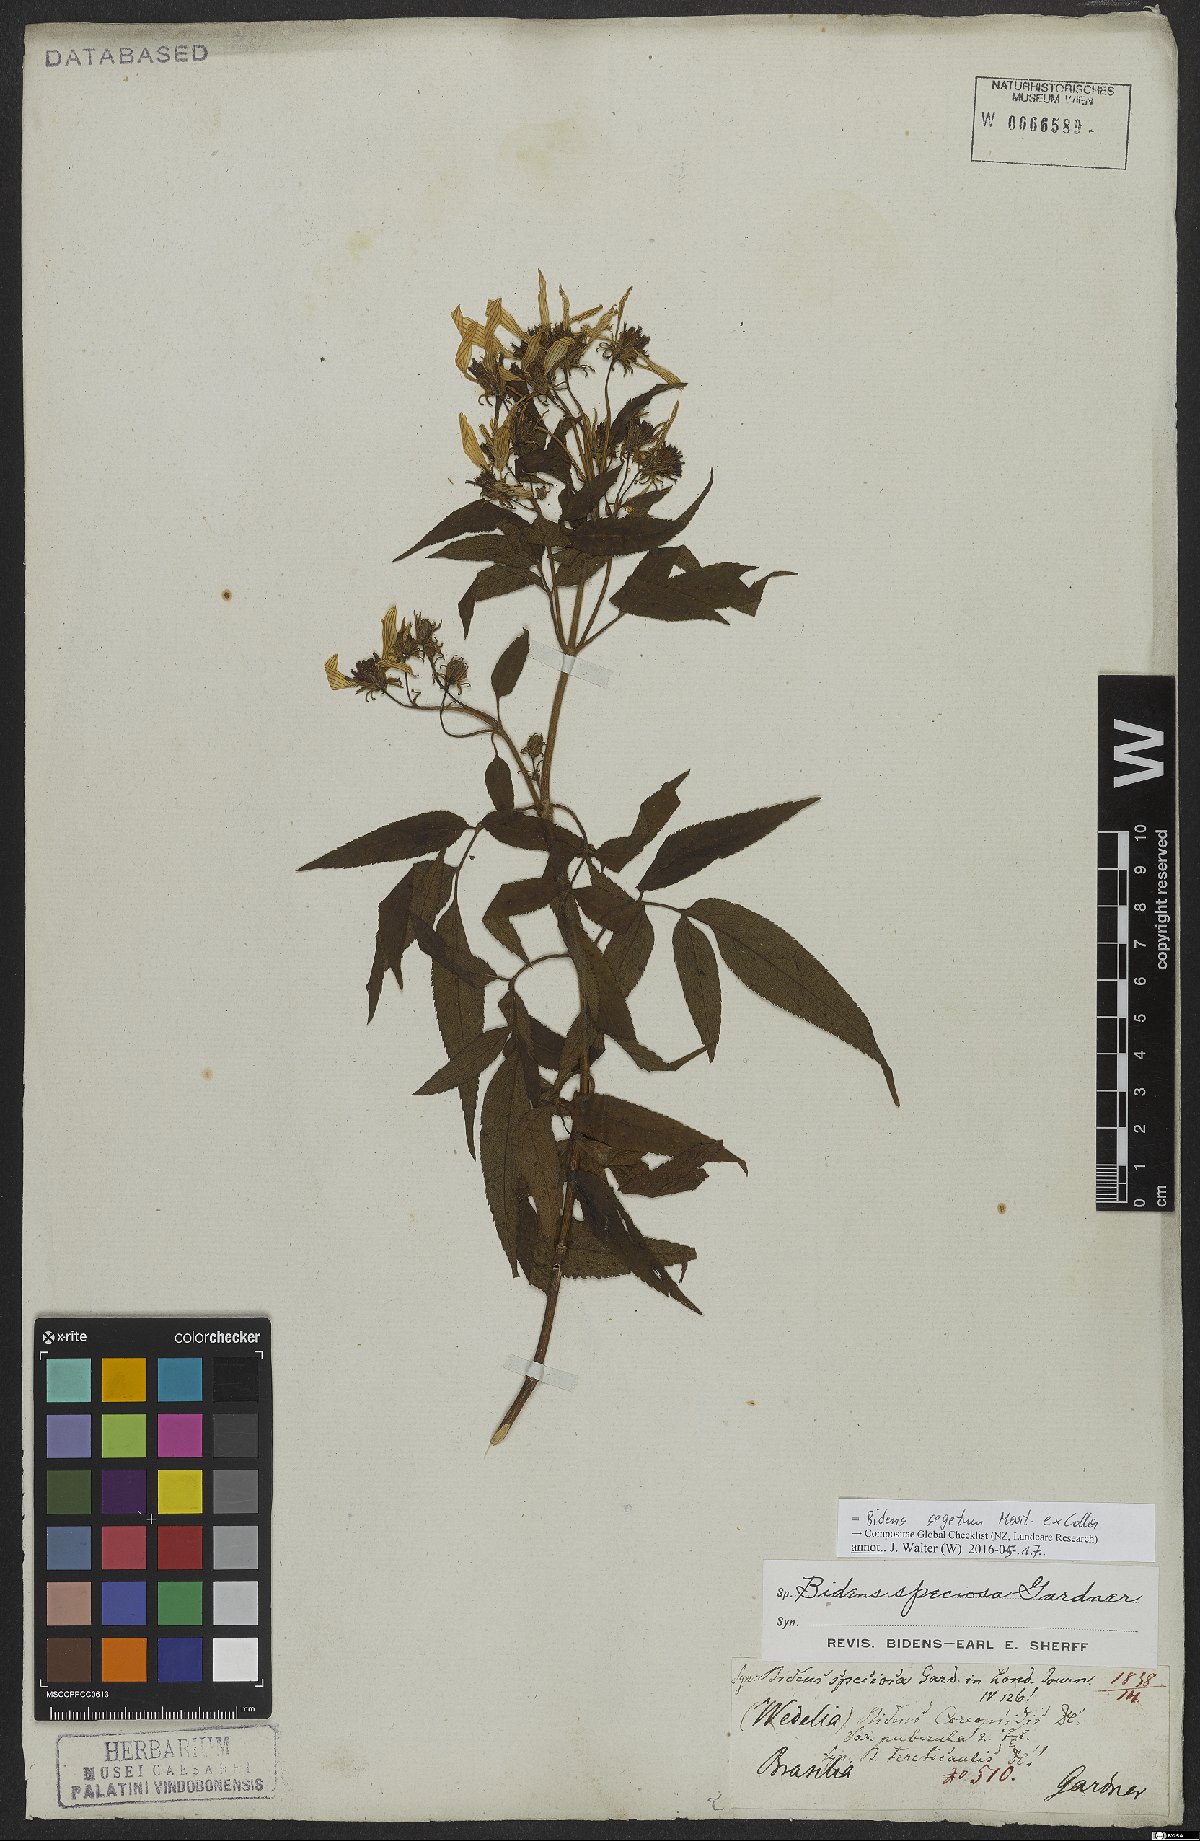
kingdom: Plantae
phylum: Tracheophyta
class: Magnoliopsida
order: Asterales
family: Asteraceae
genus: Bidens
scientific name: Bidens segetum
